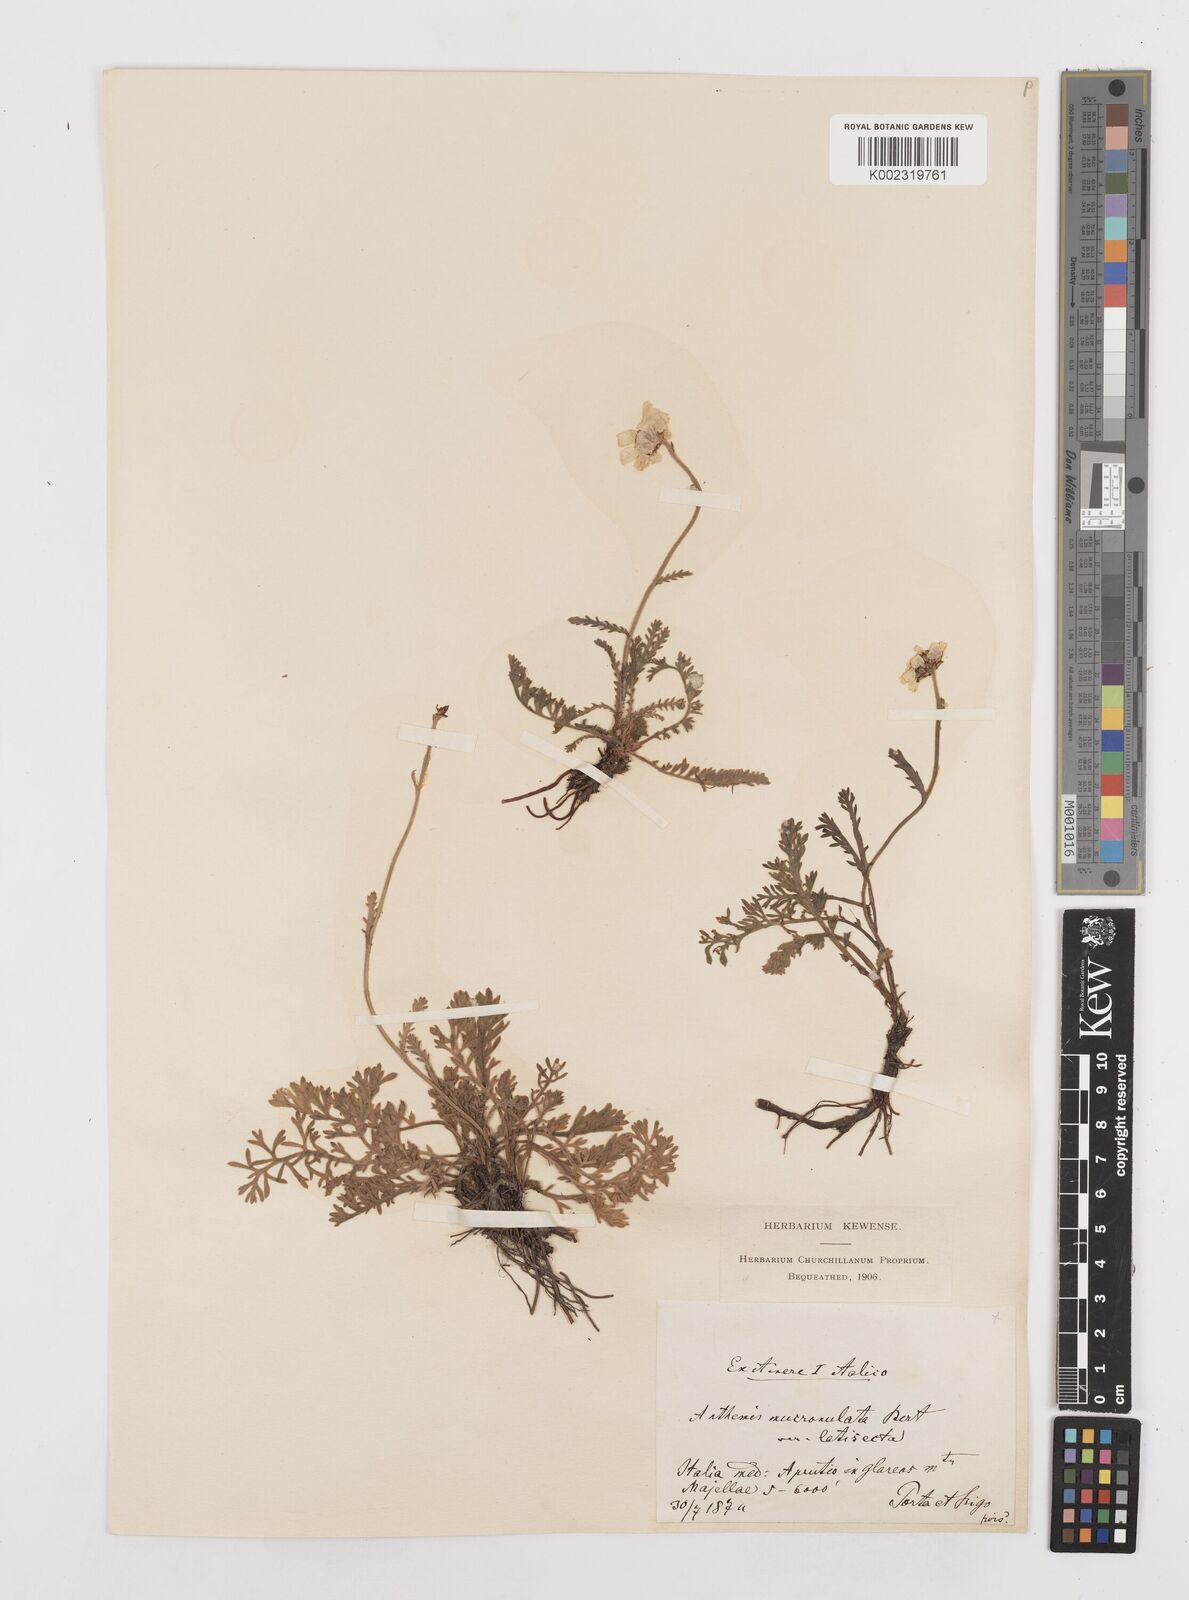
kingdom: Plantae
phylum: Tracheophyta
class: Magnoliopsida
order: Asterales
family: Asteraceae
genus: Achillea
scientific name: Achillea barrelieri
